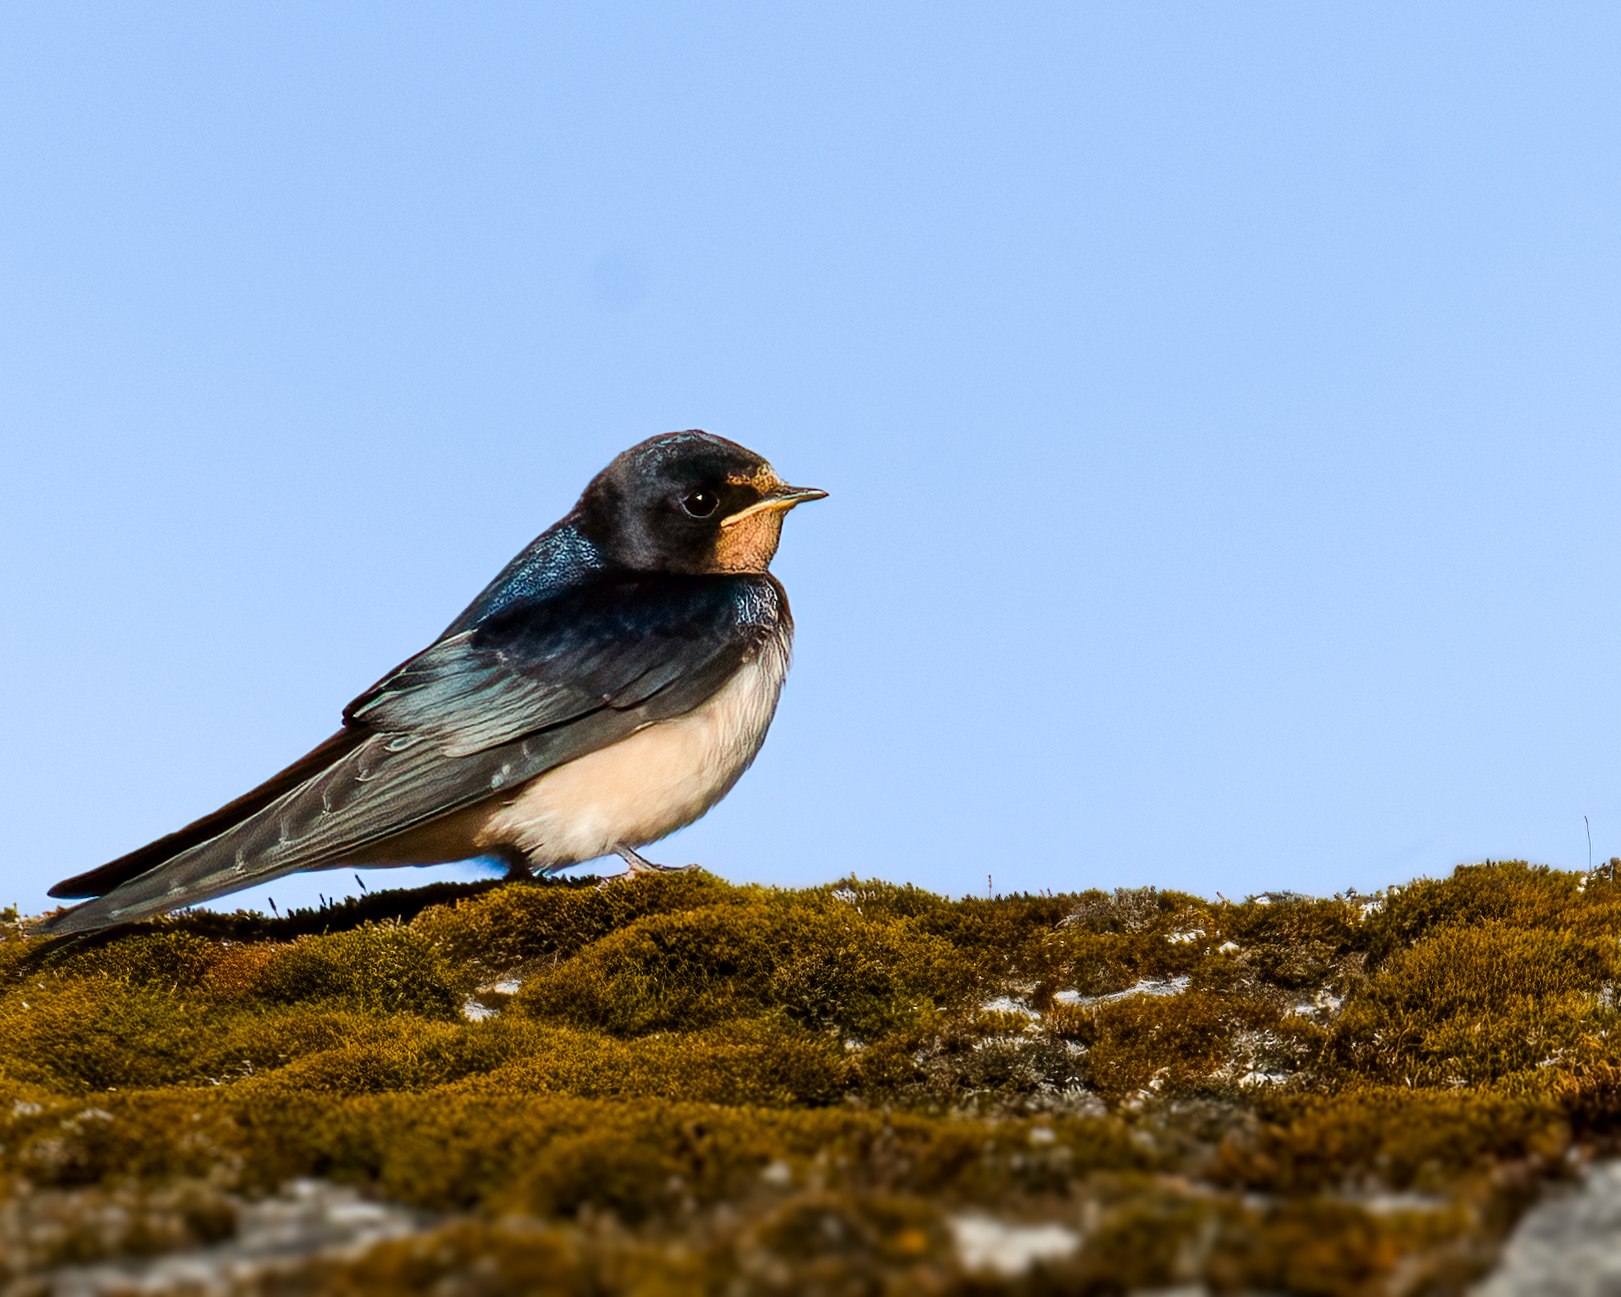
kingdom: Animalia
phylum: Chordata
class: Aves
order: Passeriformes
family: Hirundinidae
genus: Hirundo
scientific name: Hirundo rustica
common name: Landsvale
